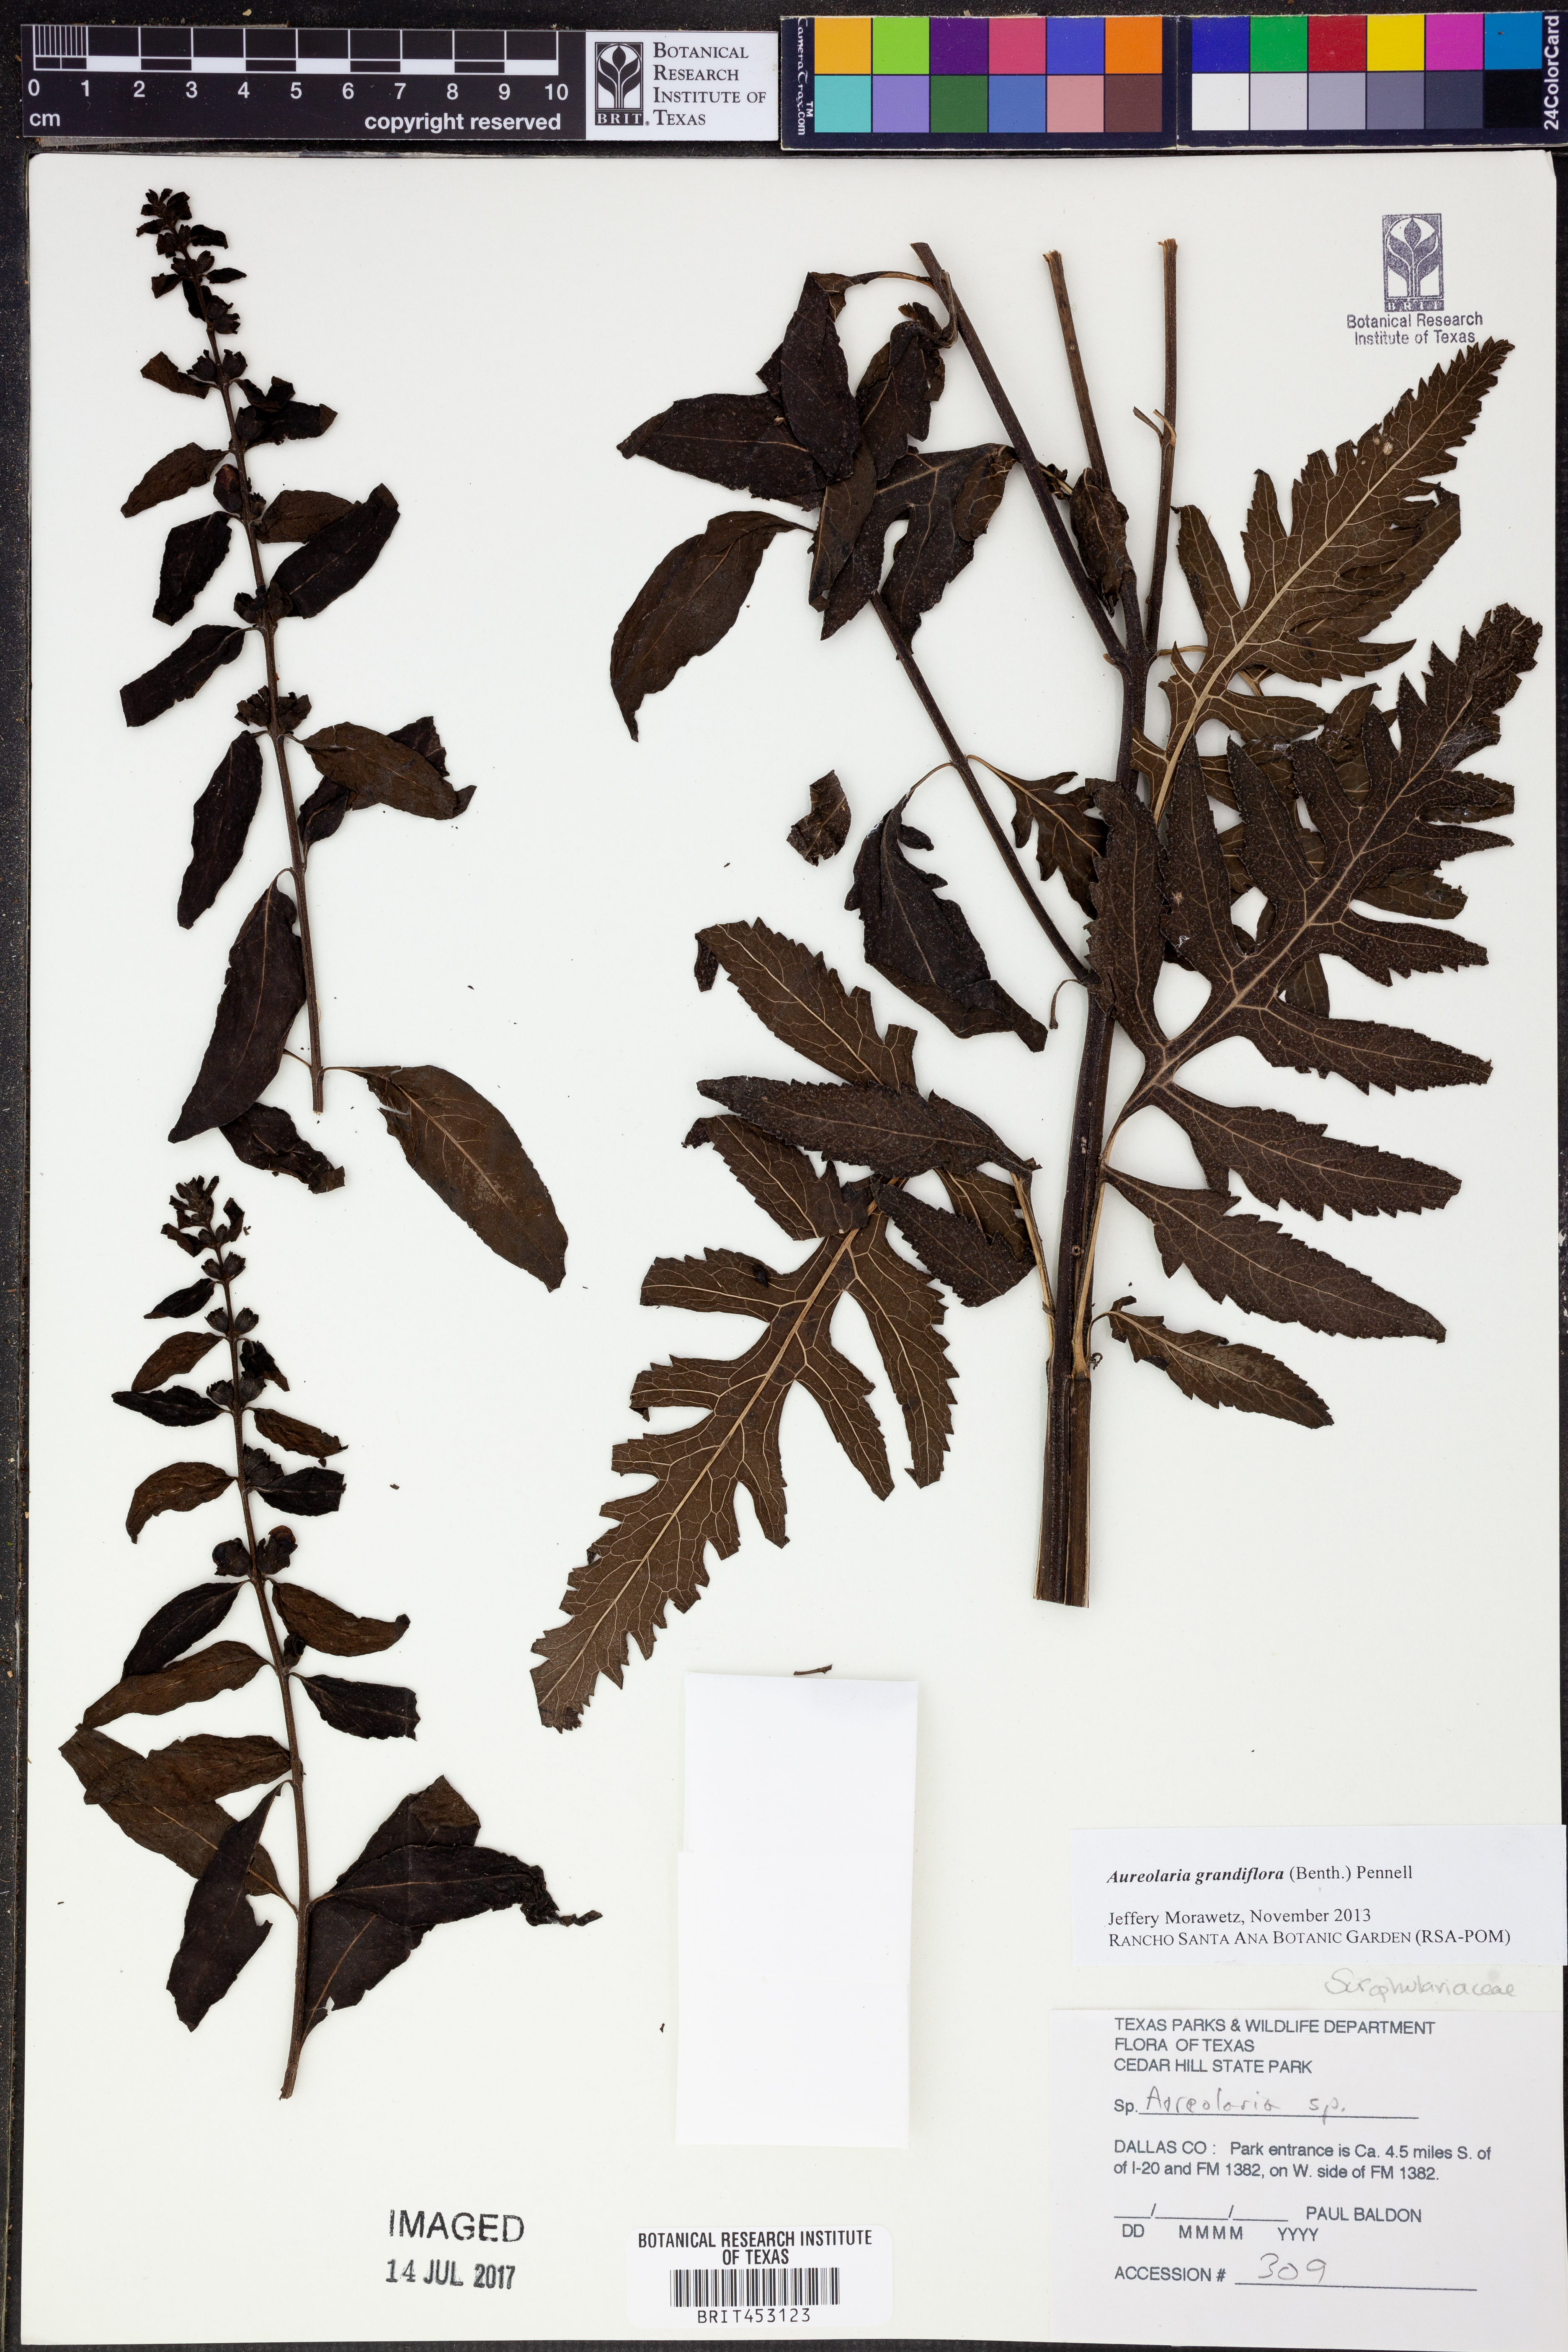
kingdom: Plantae
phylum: Tracheophyta
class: Magnoliopsida
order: Lamiales
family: Orobanchaceae
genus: Aureolaria
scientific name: Aureolaria grandiflora
